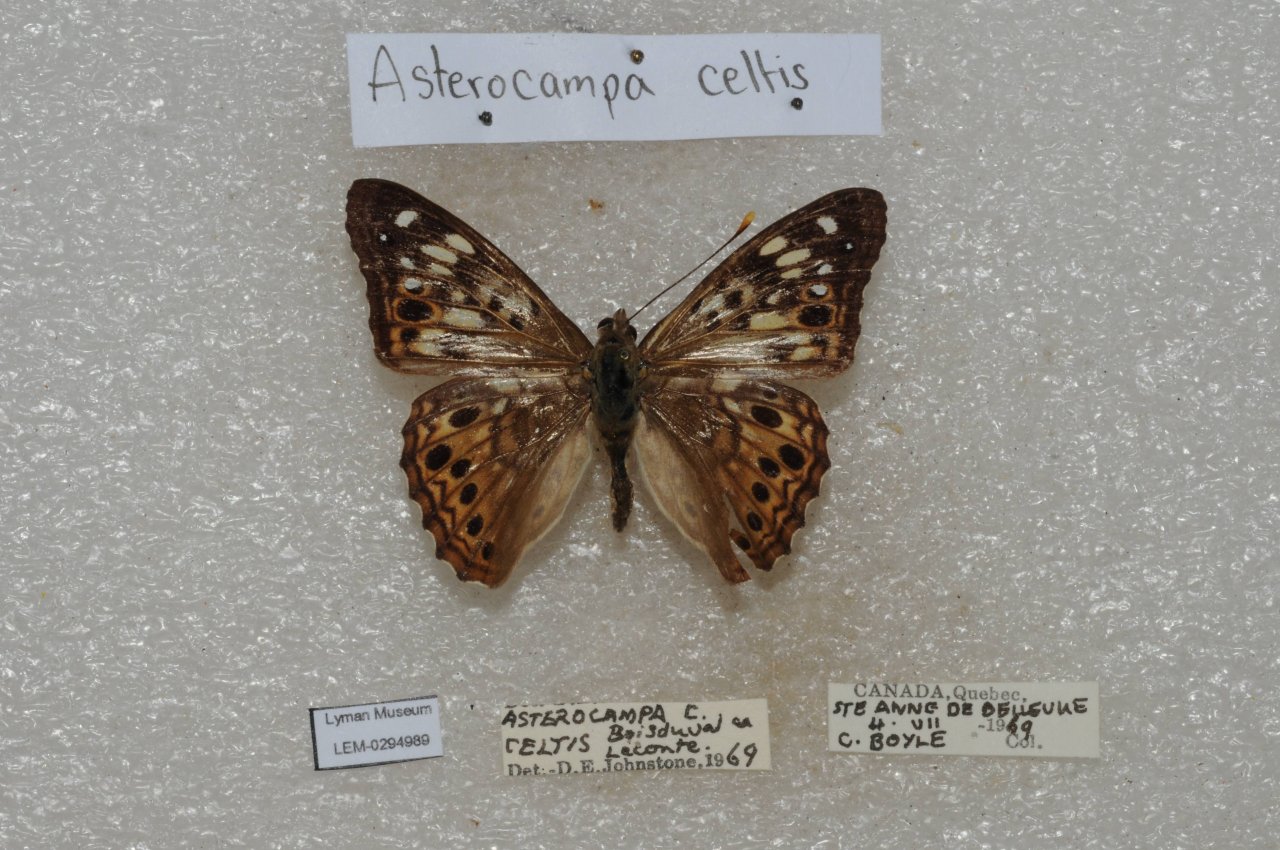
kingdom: Animalia
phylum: Arthropoda
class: Insecta
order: Lepidoptera
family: Nymphalidae
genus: Asterocampa
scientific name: Asterocampa celtis
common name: Hackberry Emperor
